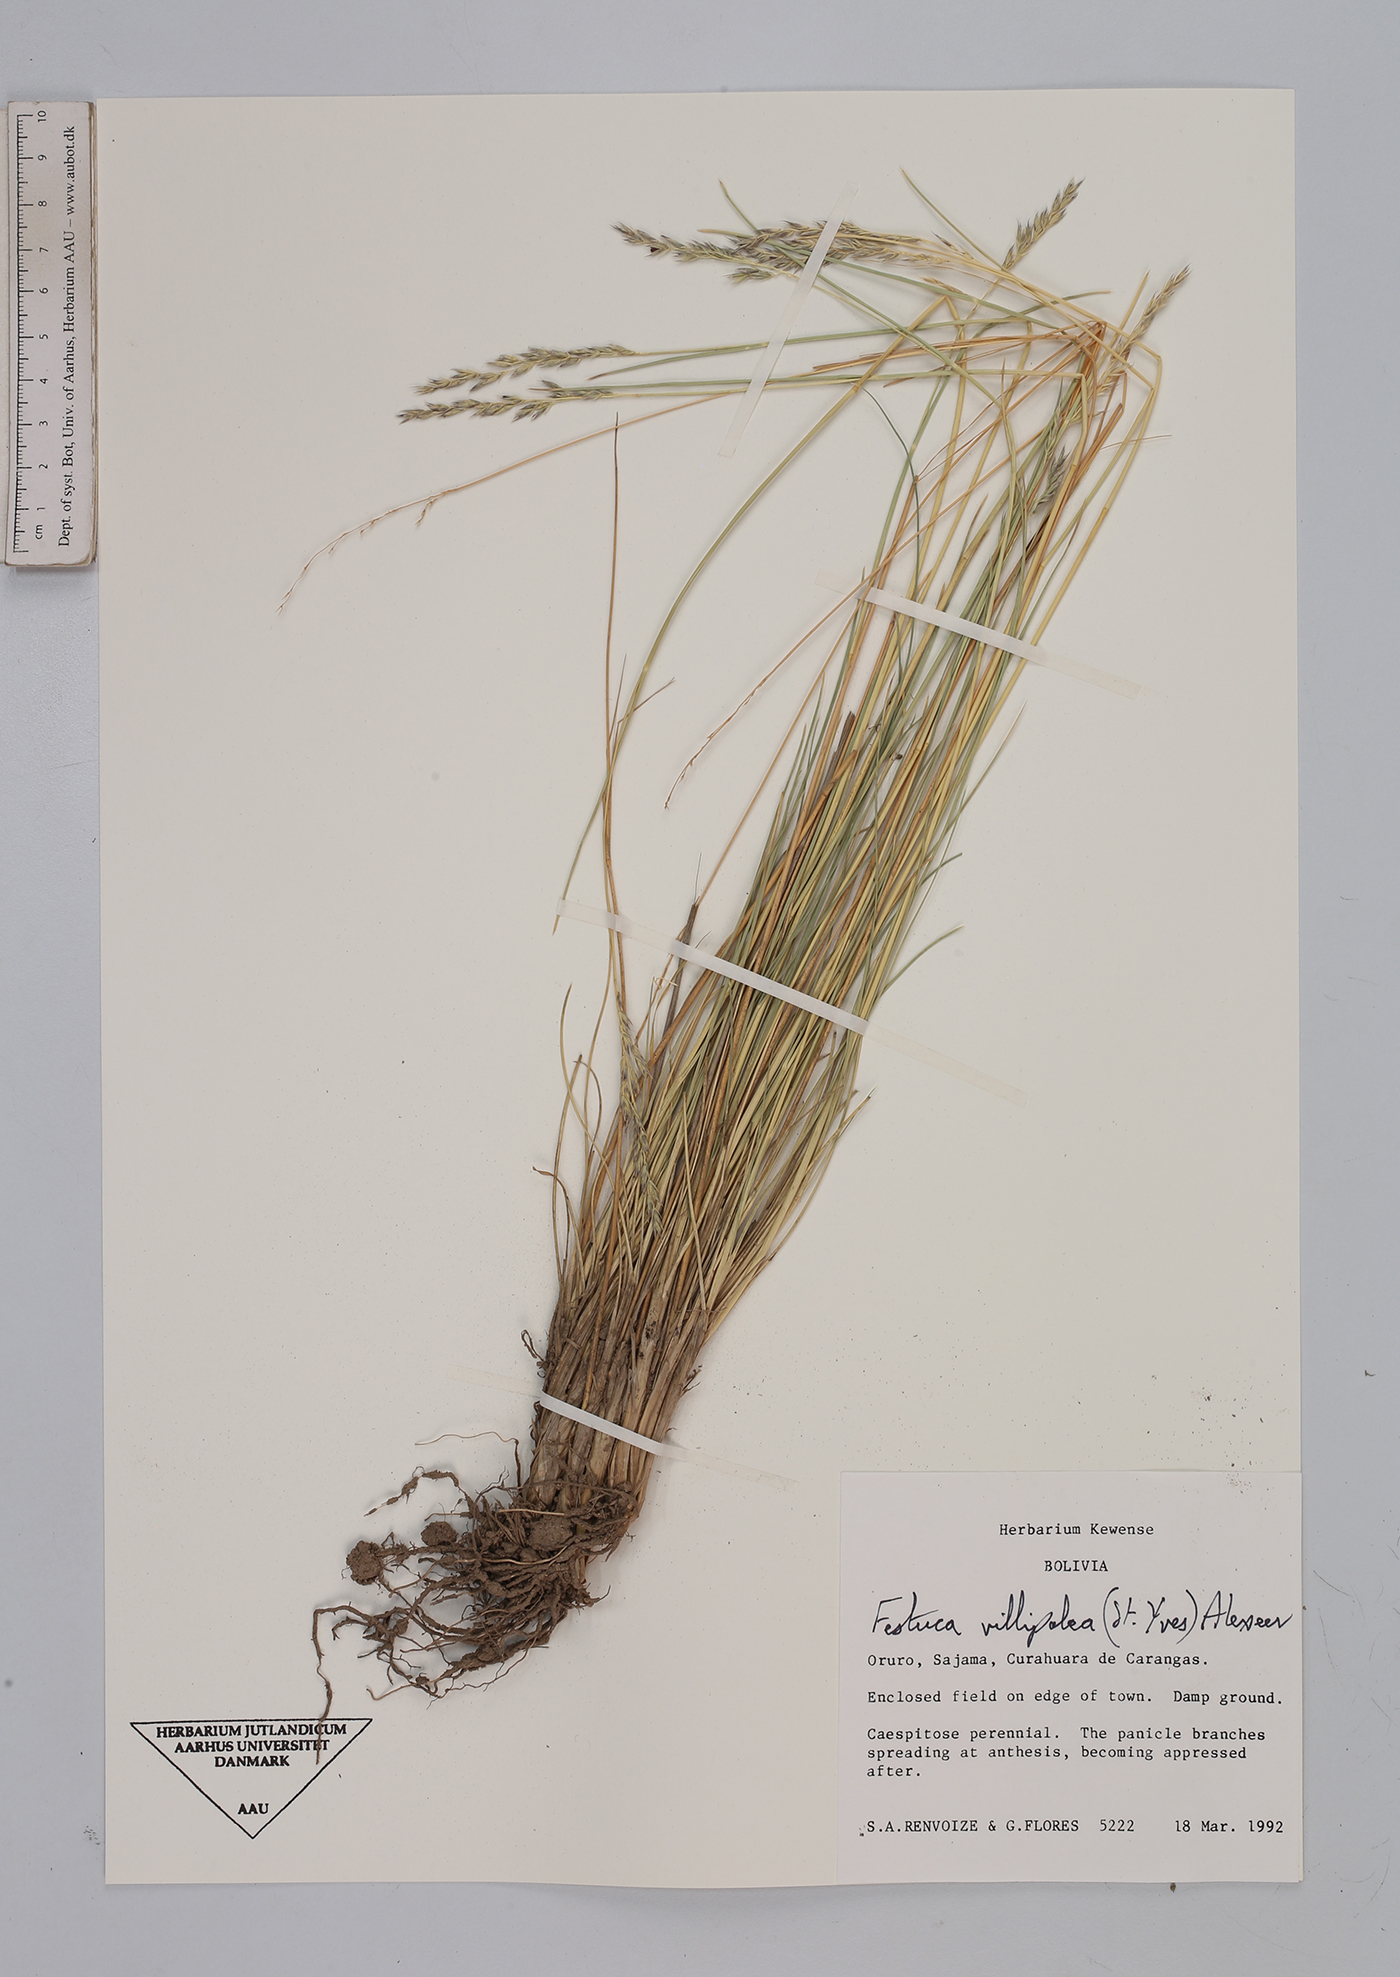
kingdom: Plantae
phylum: Tracheophyta
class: Liliopsida
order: Poales
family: Poaceae
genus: Festuca
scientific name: Festuca fiebrigii
